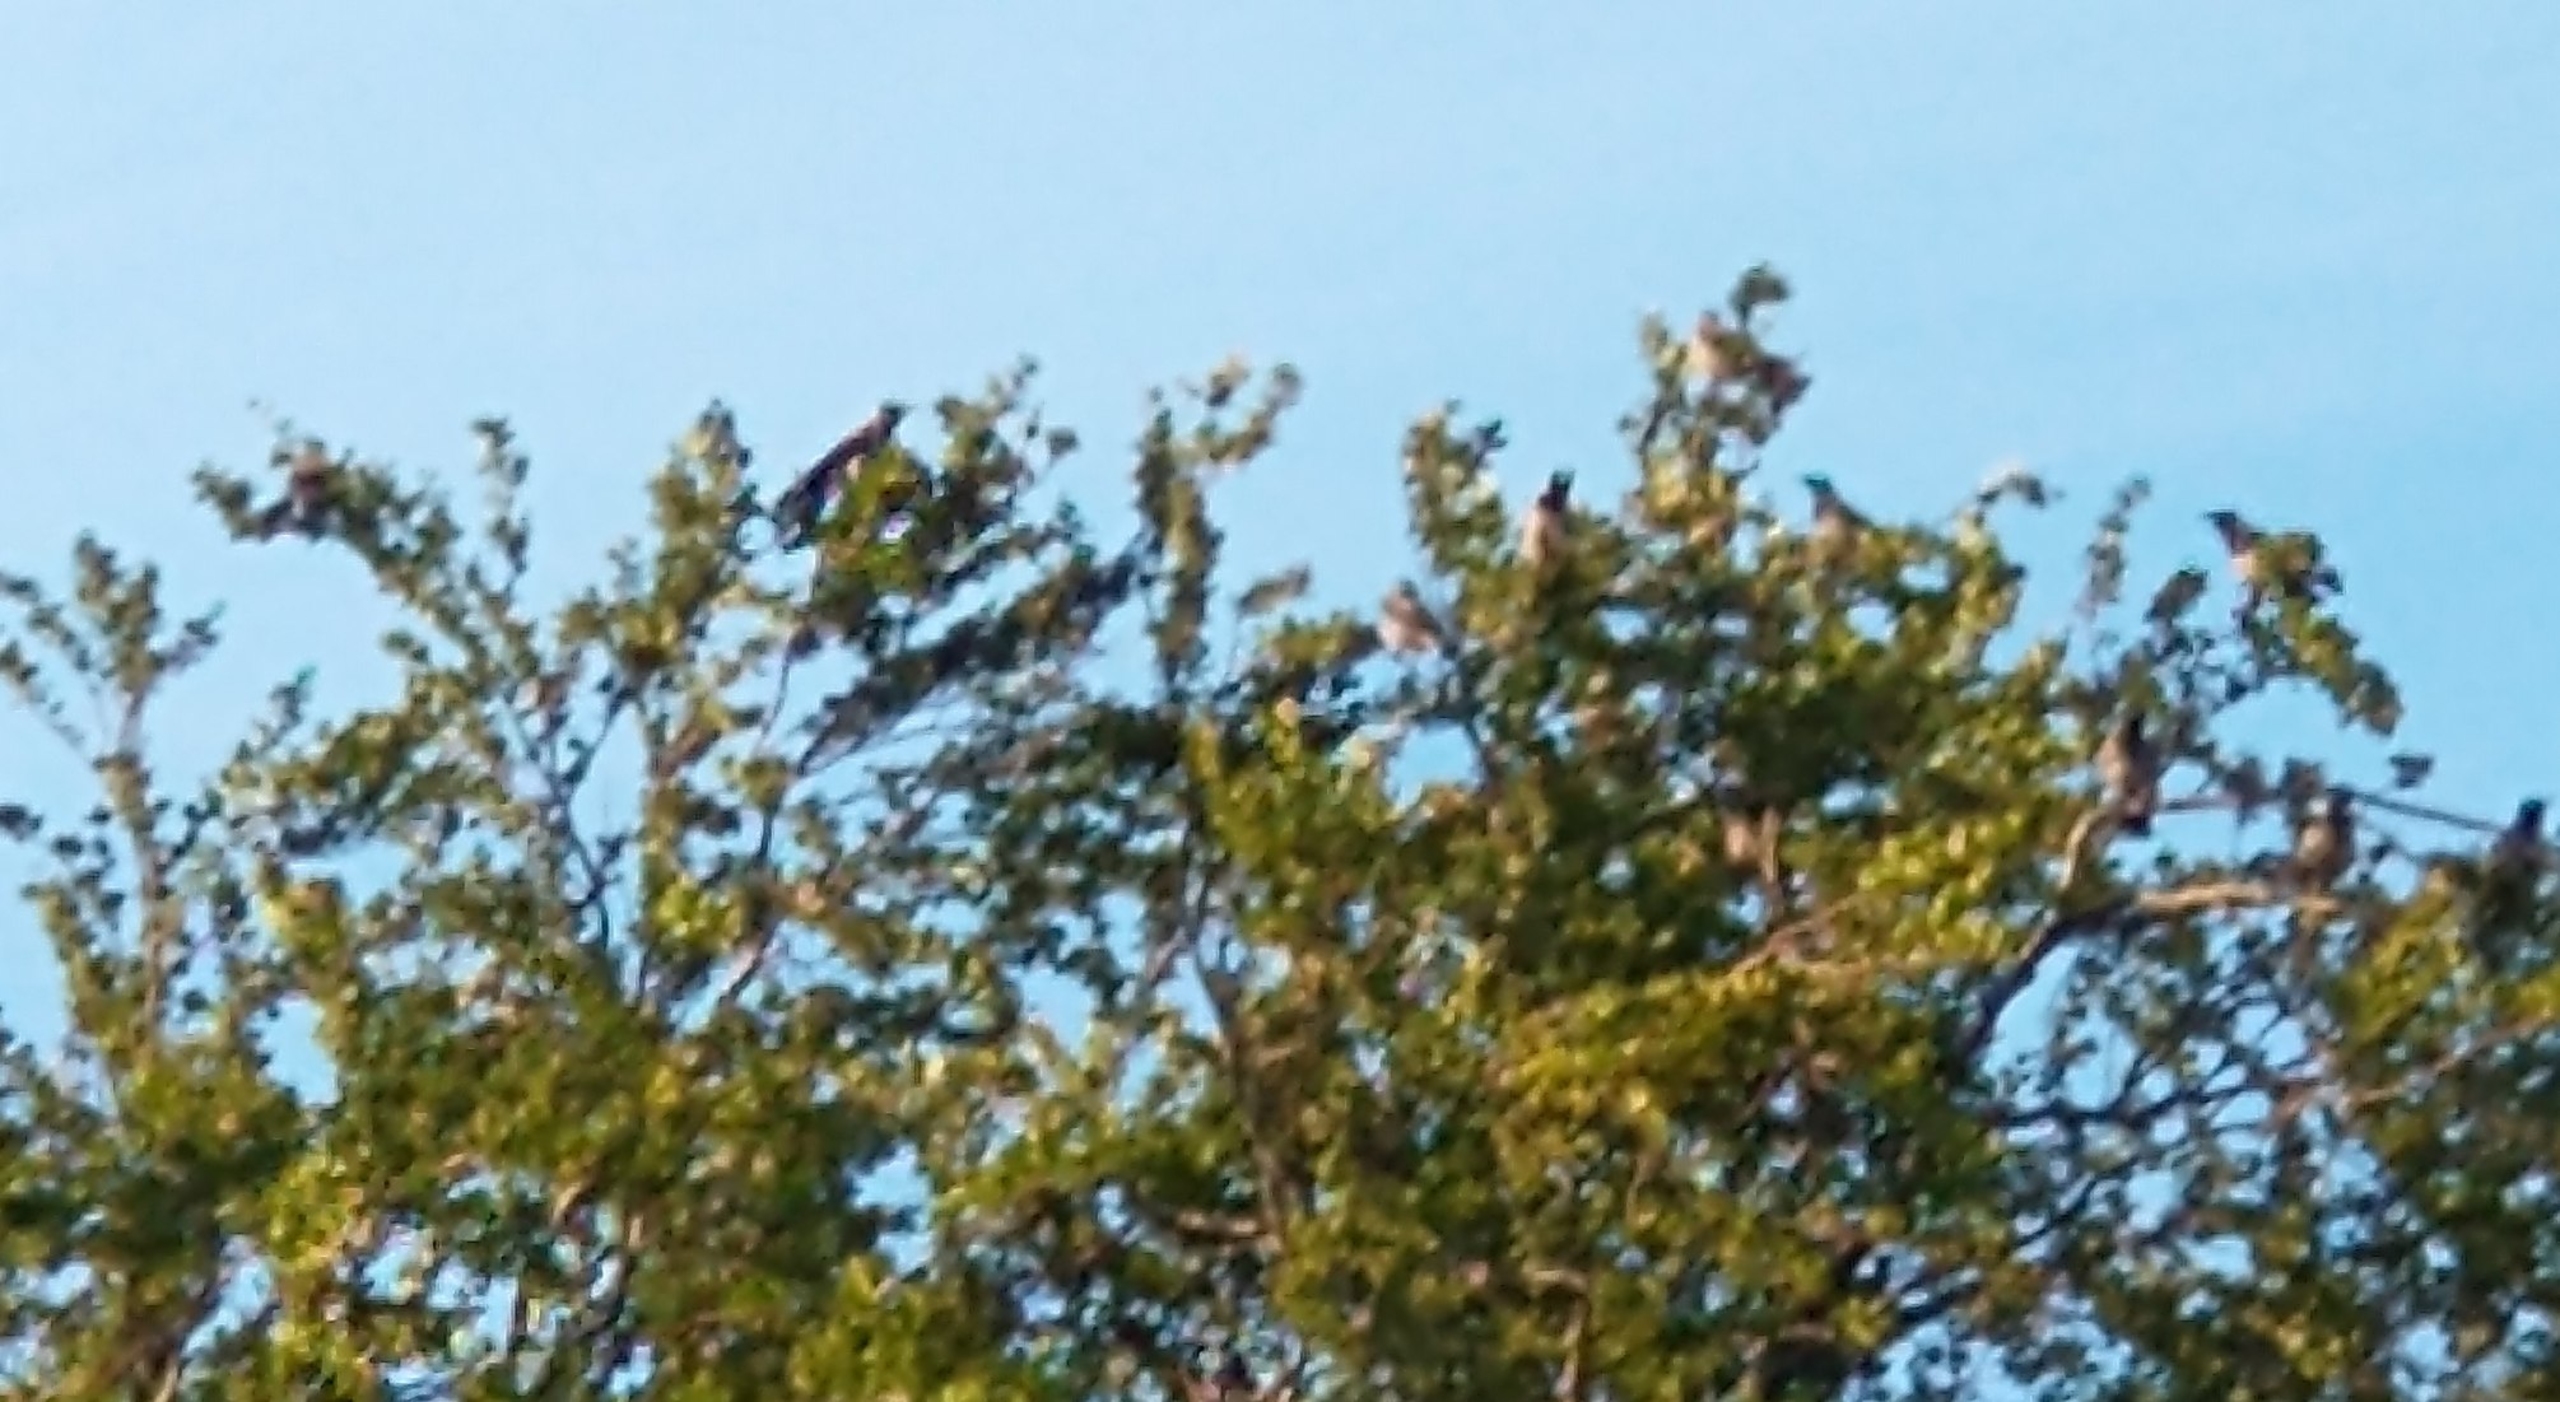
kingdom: Animalia
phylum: Chordata
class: Aves
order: Passeriformes
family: Corvidae
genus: Corvus
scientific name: Corvus cornix
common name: Gråkrage
